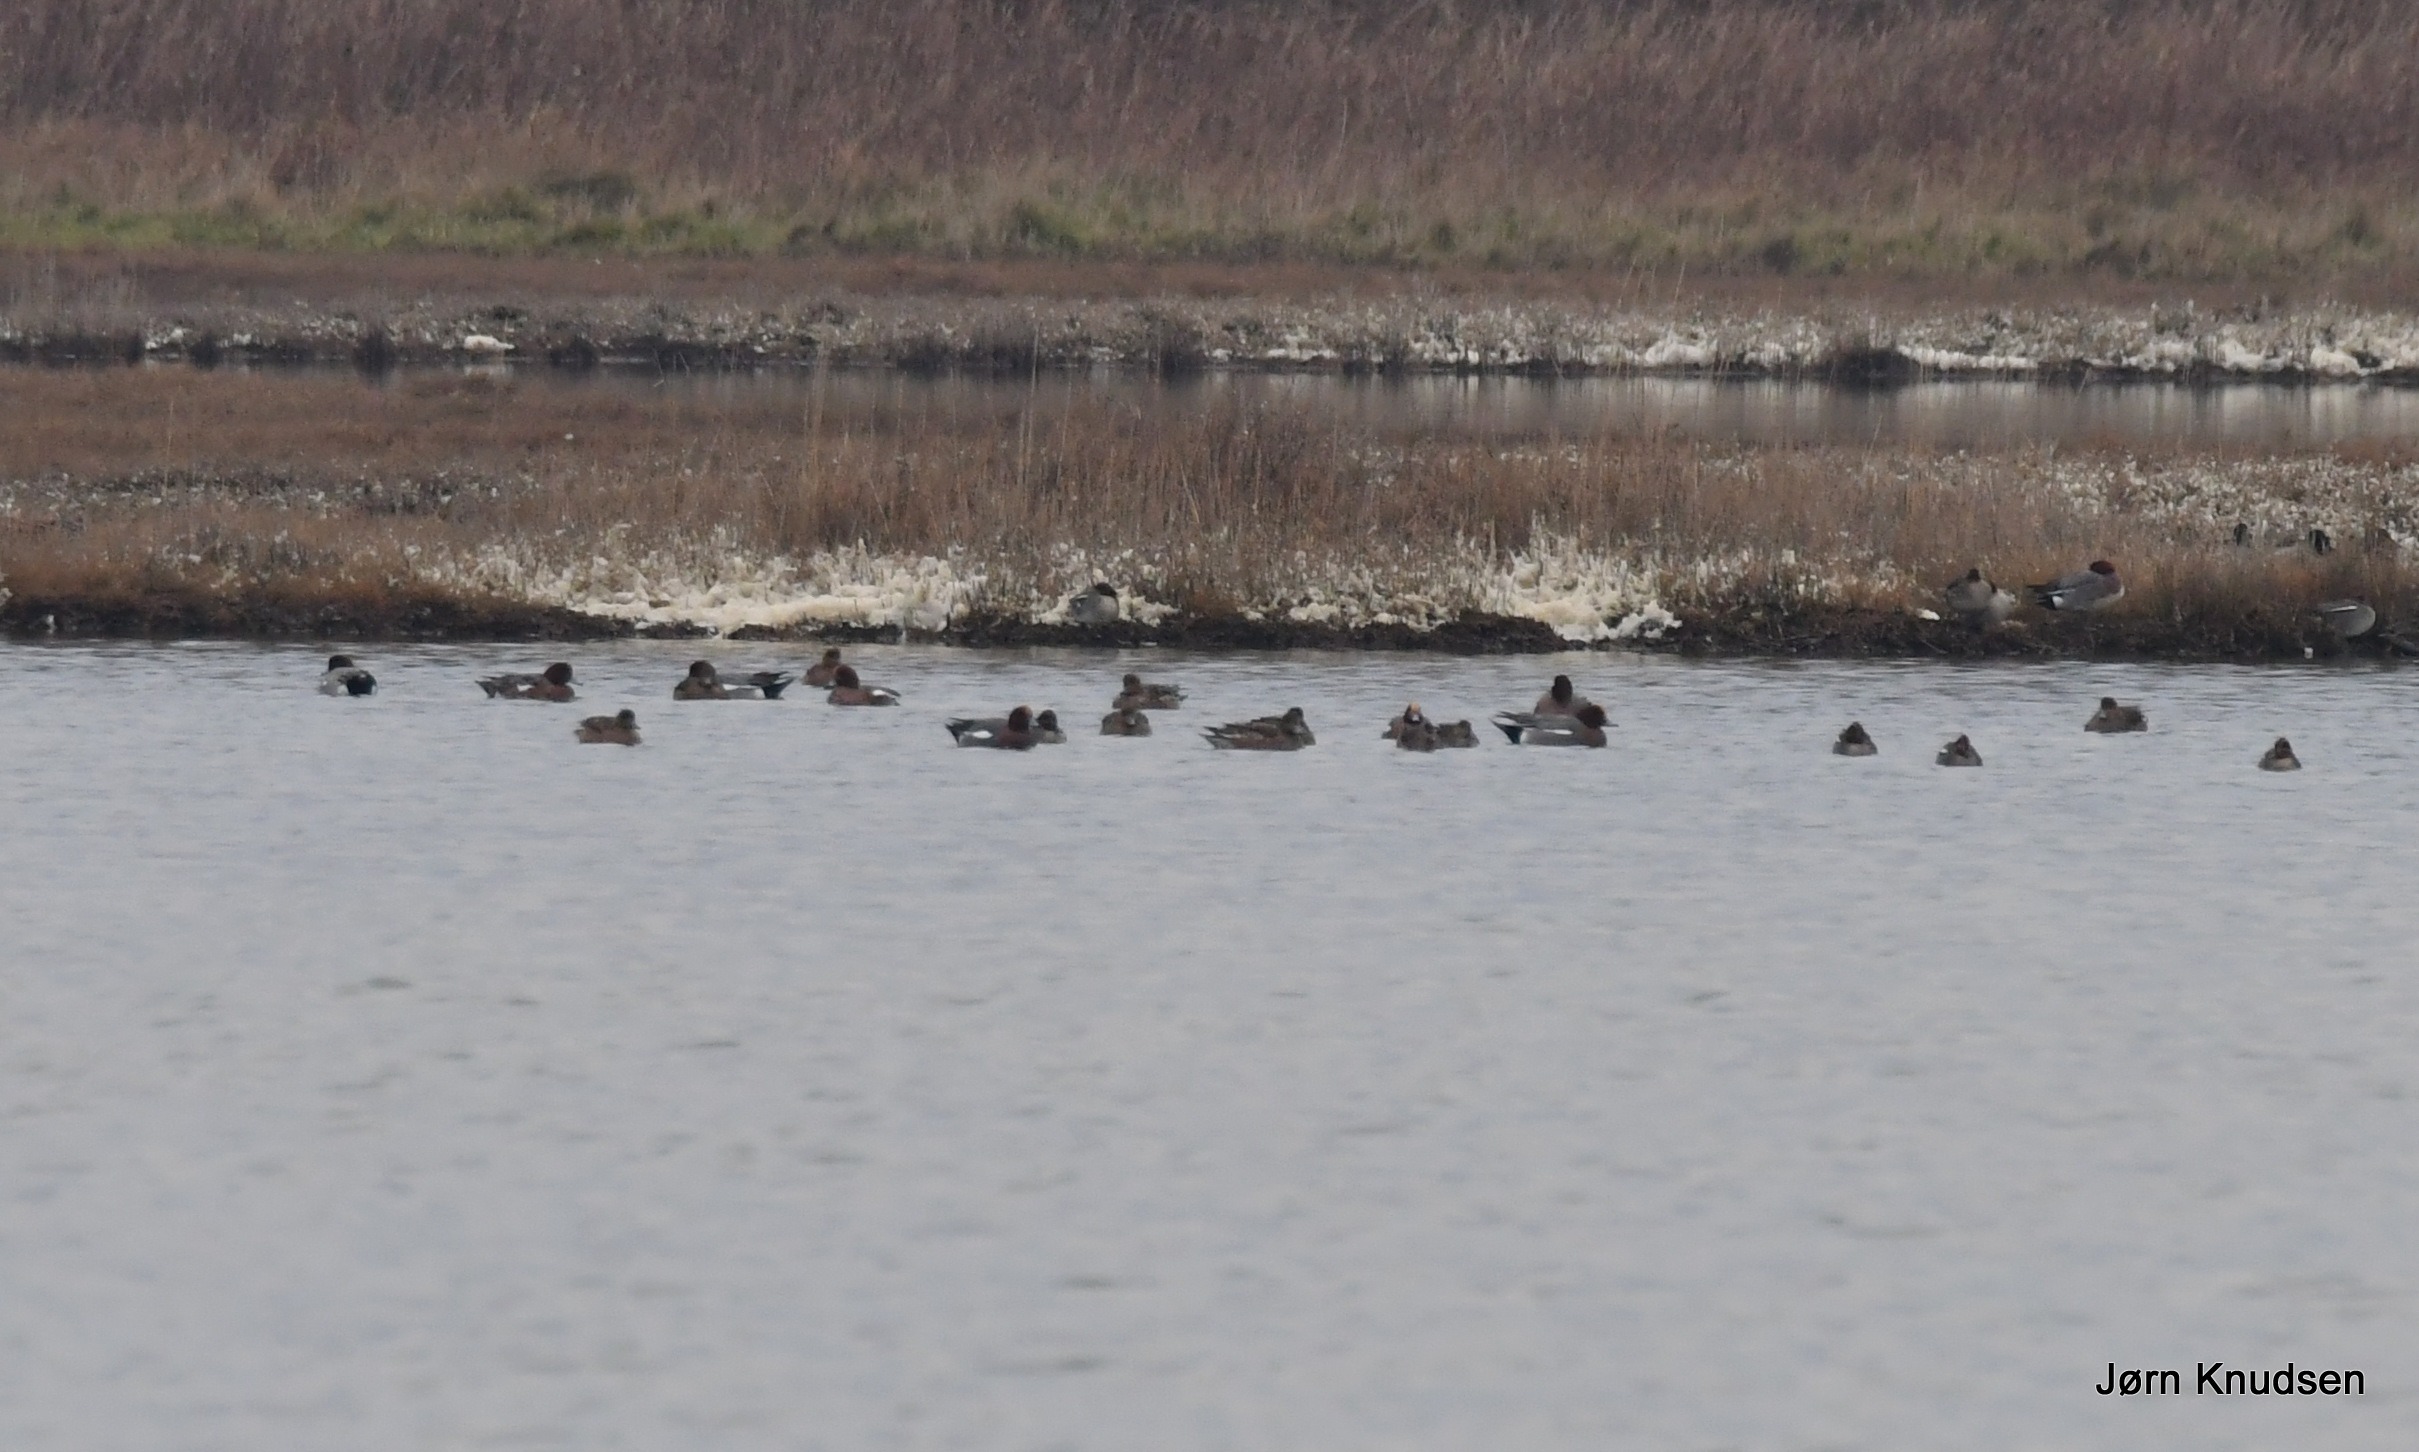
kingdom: Animalia
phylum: Chordata
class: Aves
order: Anseriformes
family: Anatidae
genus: Mareca
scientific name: Mareca penelope
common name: Pibeand
